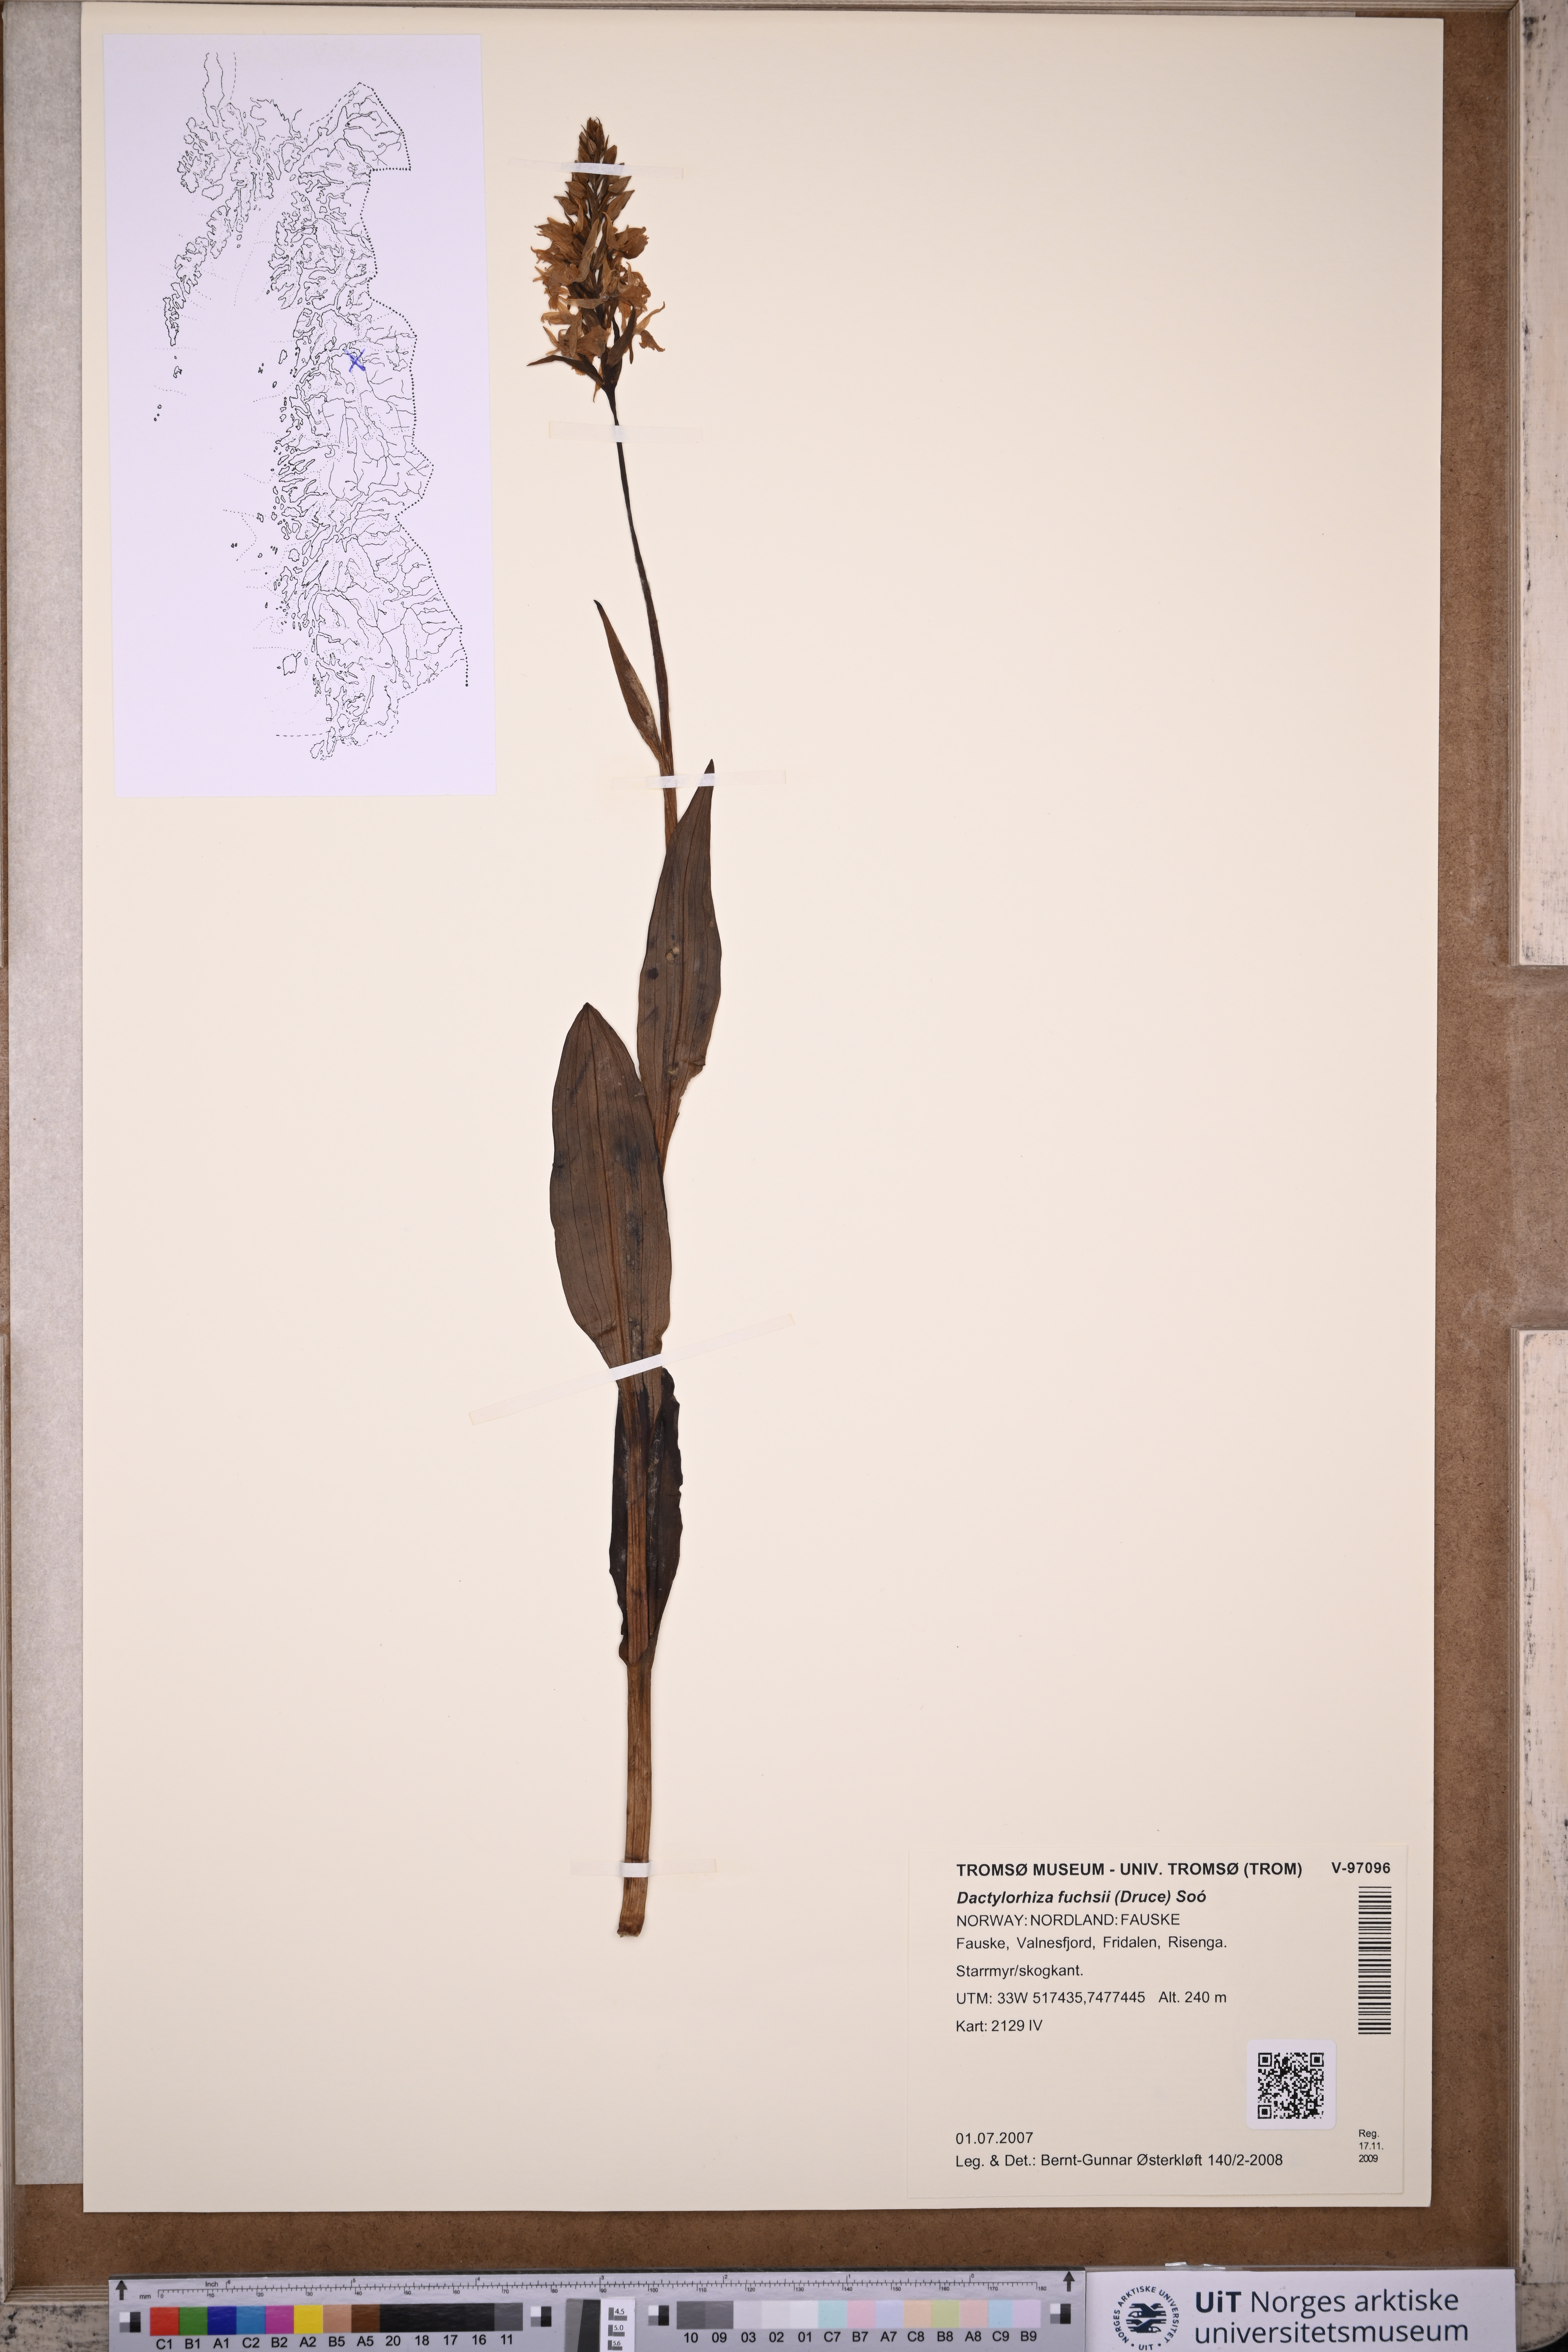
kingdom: Plantae
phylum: Tracheophyta
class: Liliopsida
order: Asparagales
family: Orchidaceae
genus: Dactylorhiza
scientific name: Dactylorhiza maculata
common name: Heath spotted-orchid
